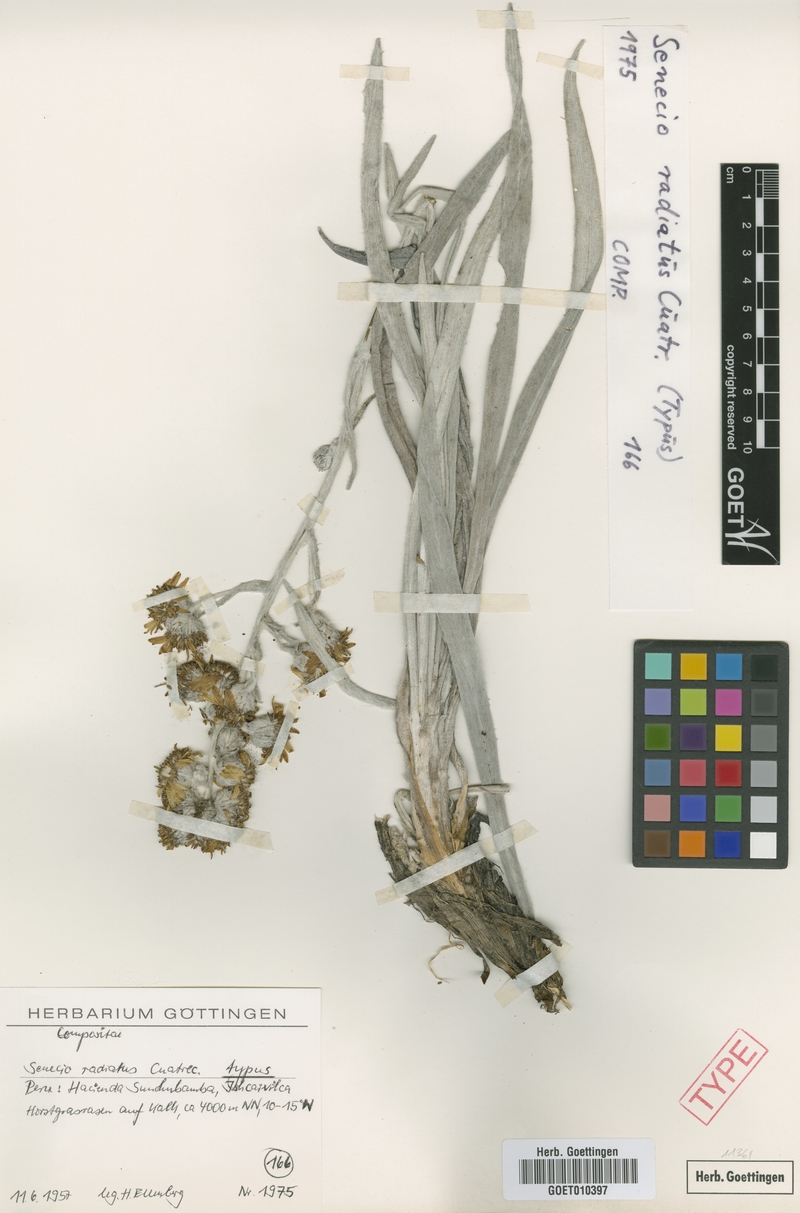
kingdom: Plantae
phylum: Tracheophyta
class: Magnoliopsida
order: Asterales
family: Asteraceae
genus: Senecio
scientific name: Senecio radiatus
